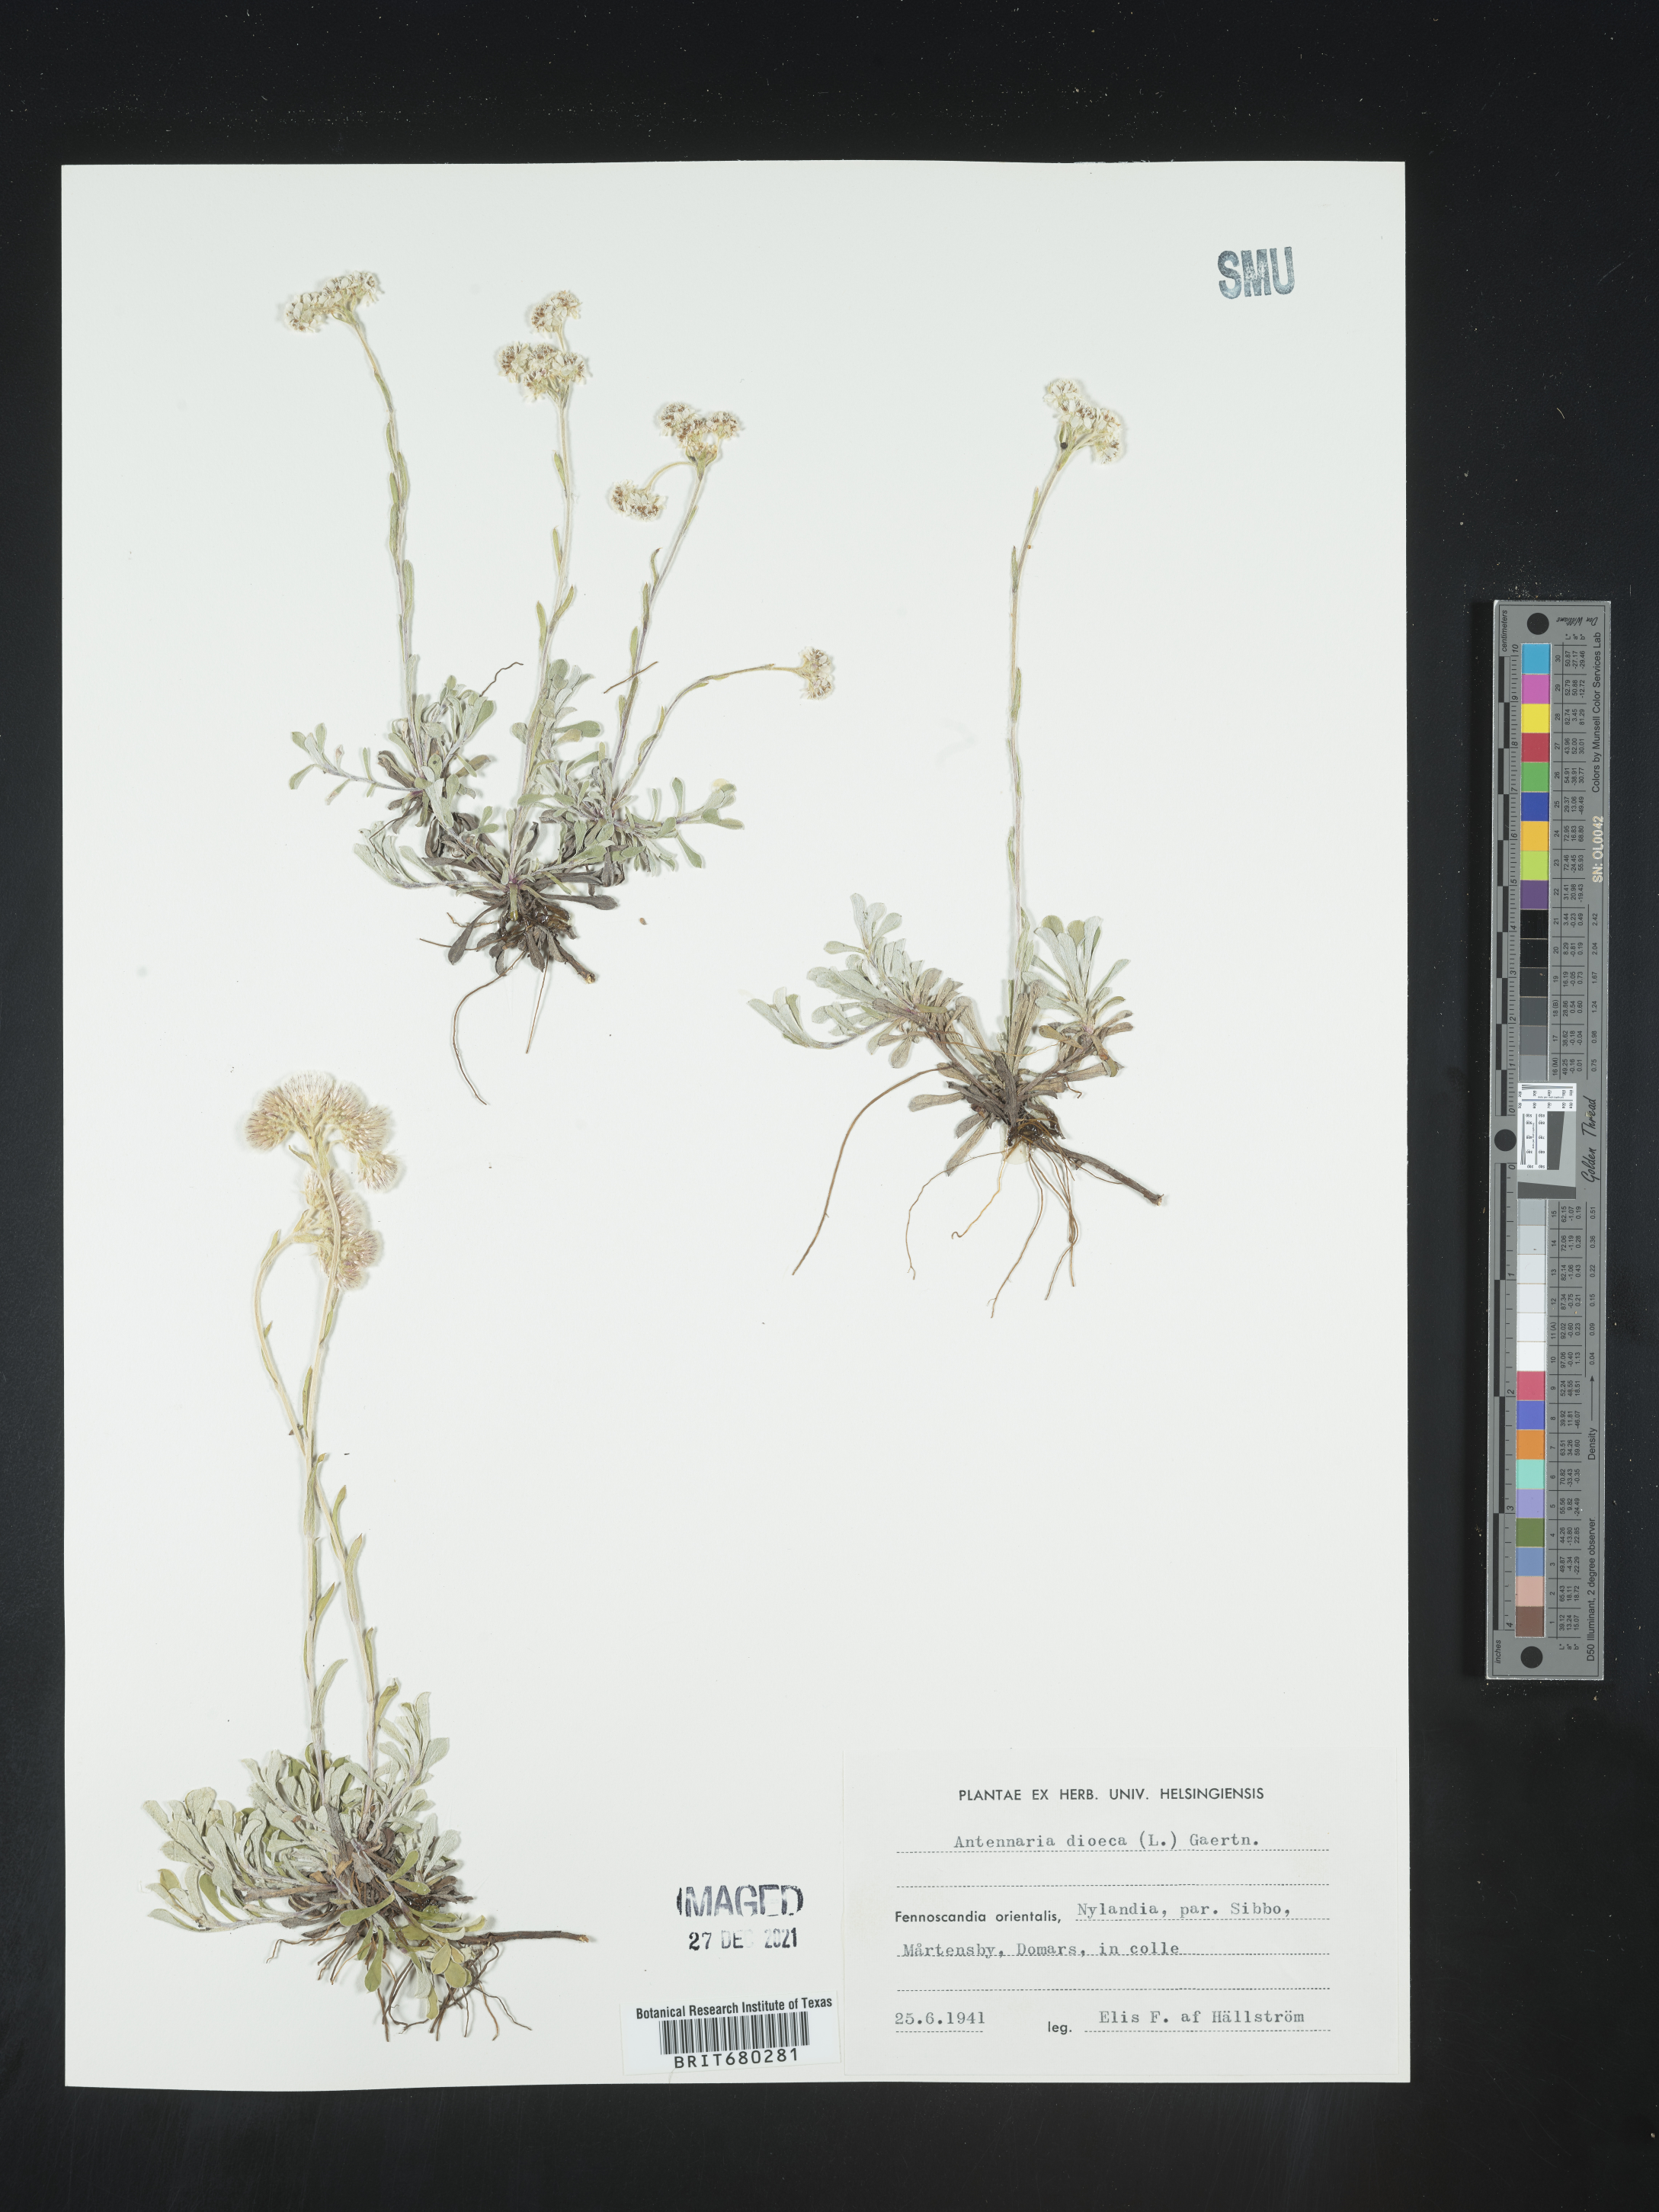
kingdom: Plantae
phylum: Tracheophyta
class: Magnoliopsida
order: Asterales
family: Asteraceae
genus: Antennaria
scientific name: Antennaria dioica
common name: Mountain everlasting
